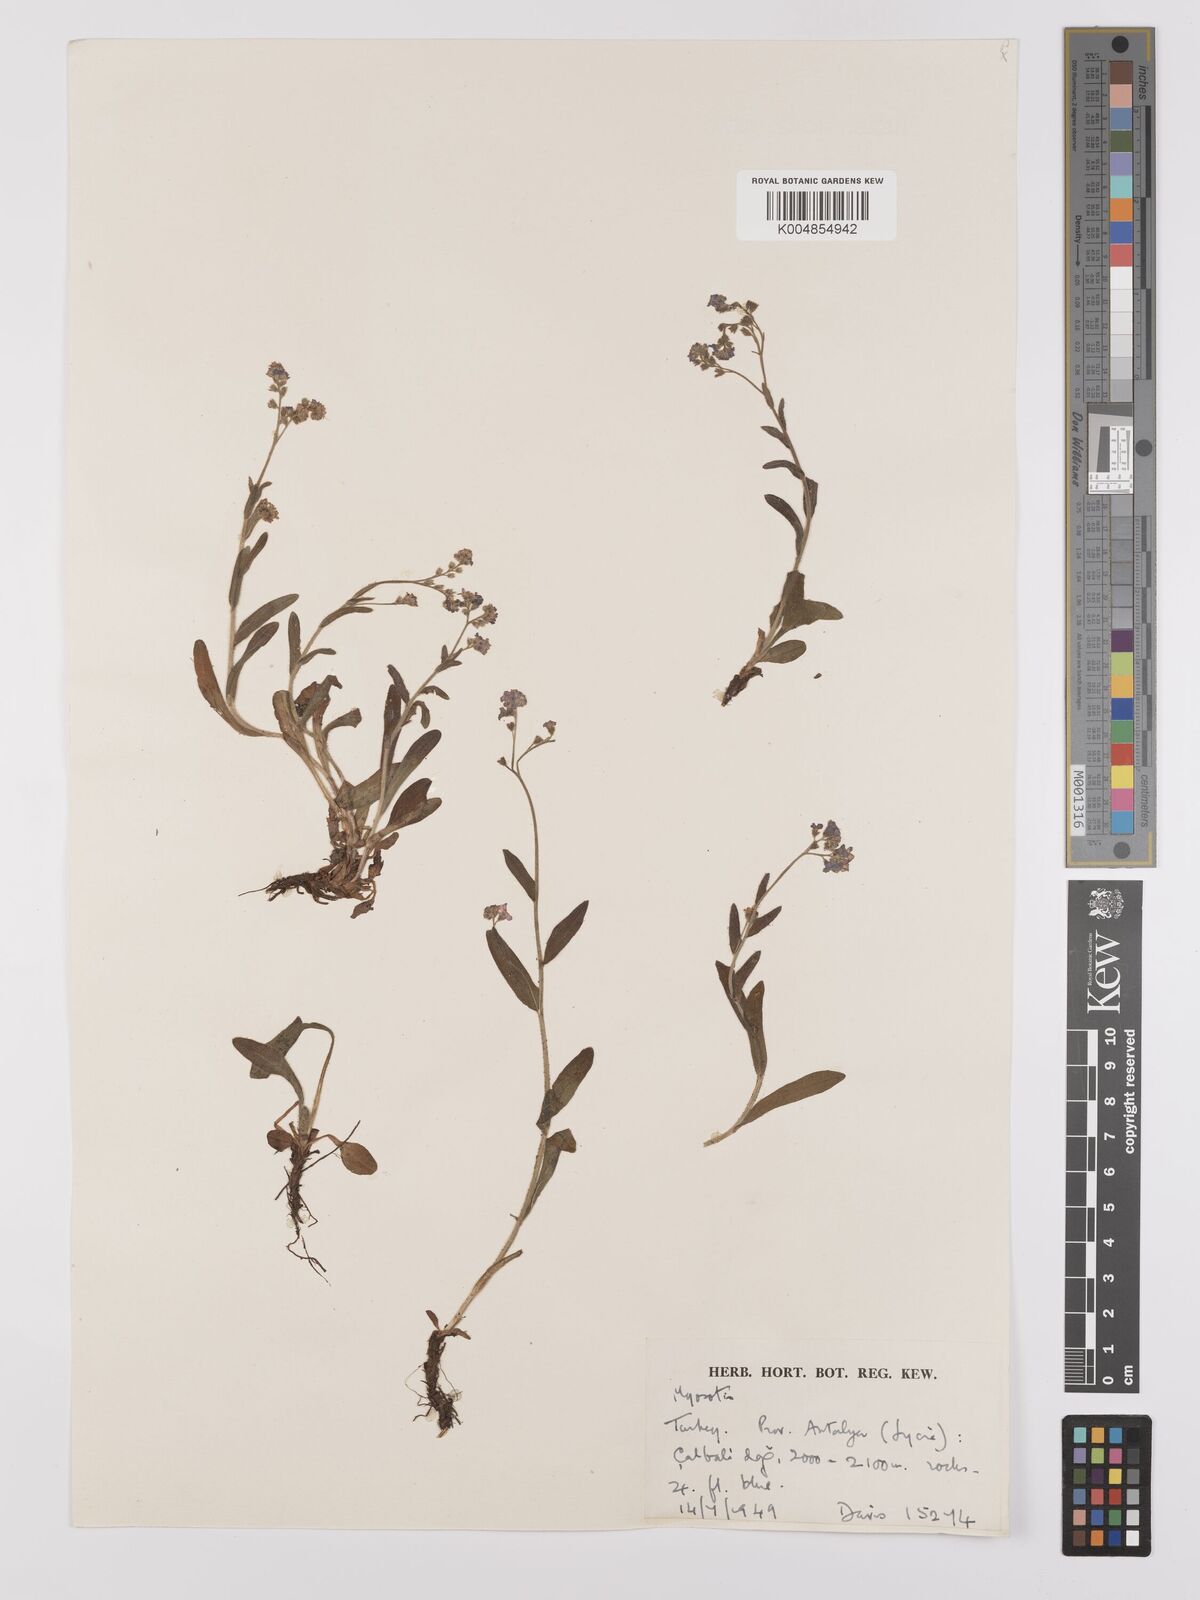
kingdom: Plantae
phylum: Tracheophyta
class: Magnoliopsida
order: Boraginales
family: Boraginaceae
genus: Myosotis
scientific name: Myosotis
